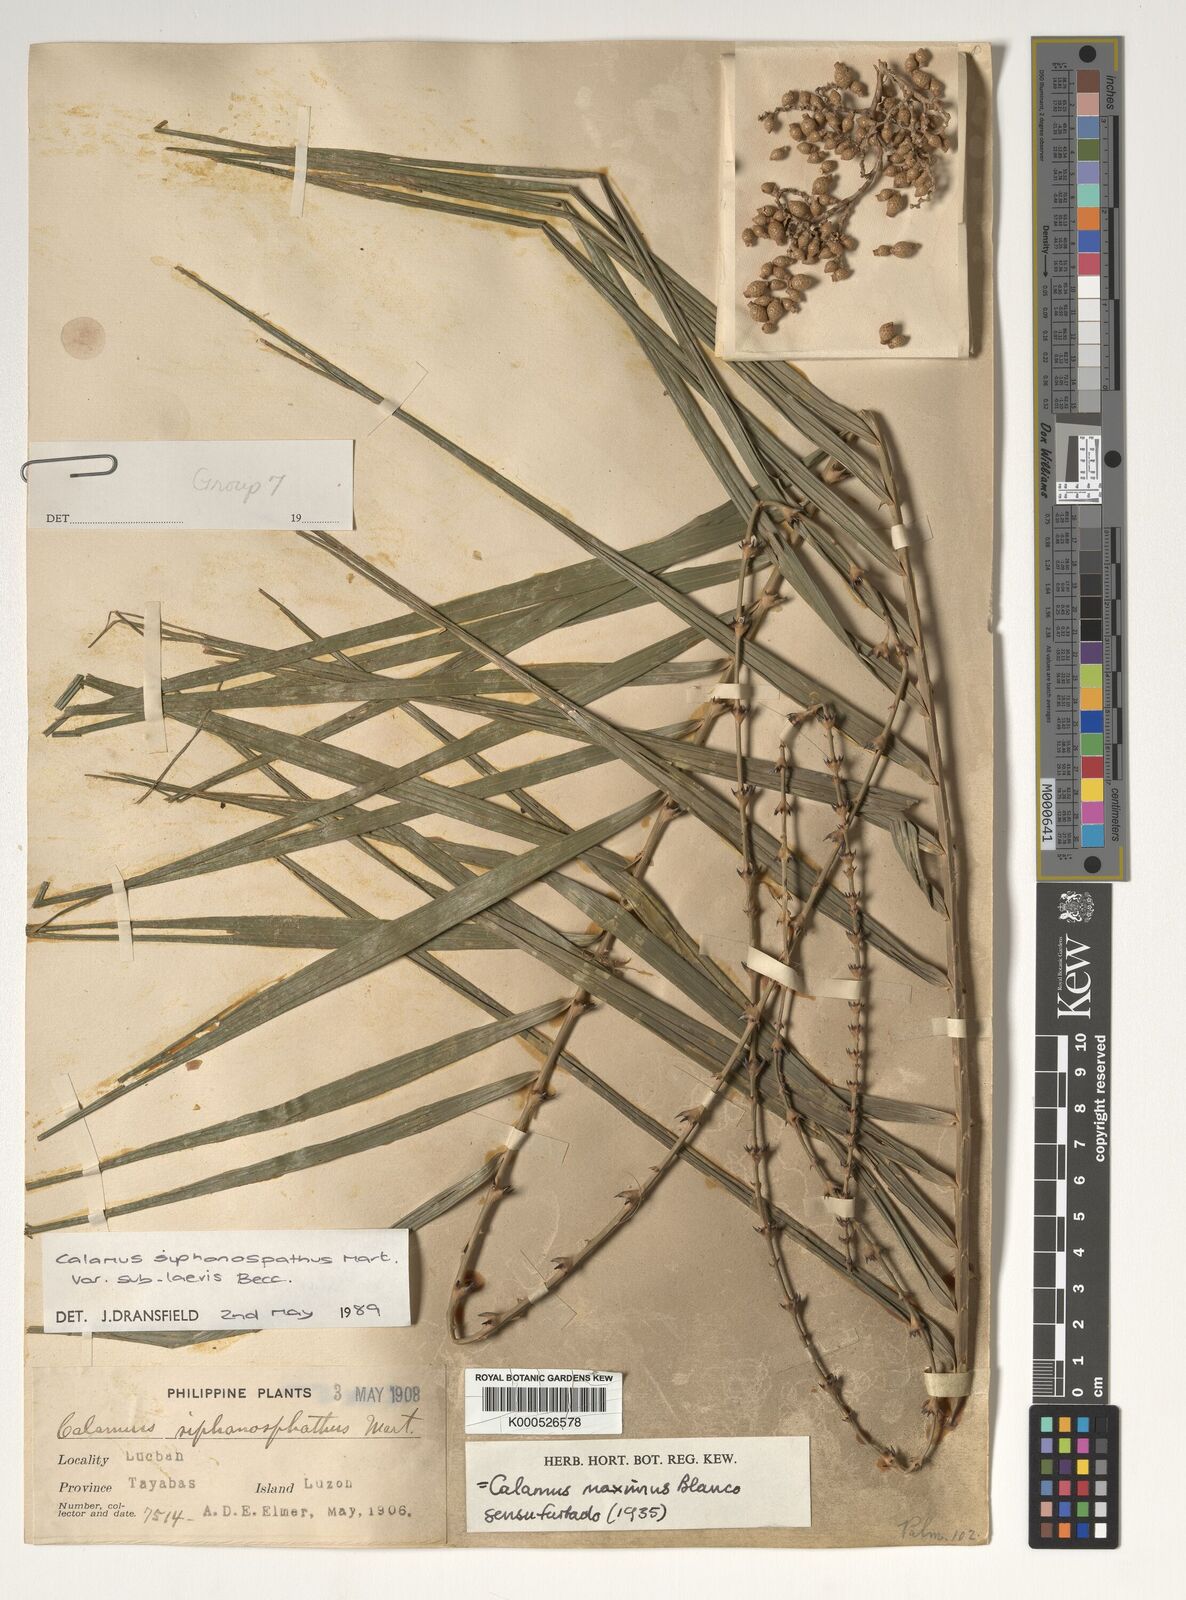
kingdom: Plantae
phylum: Tracheophyta
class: Liliopsida
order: Arecales
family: Arecaceae
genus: Calamus
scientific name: Calamus siphonospathus
